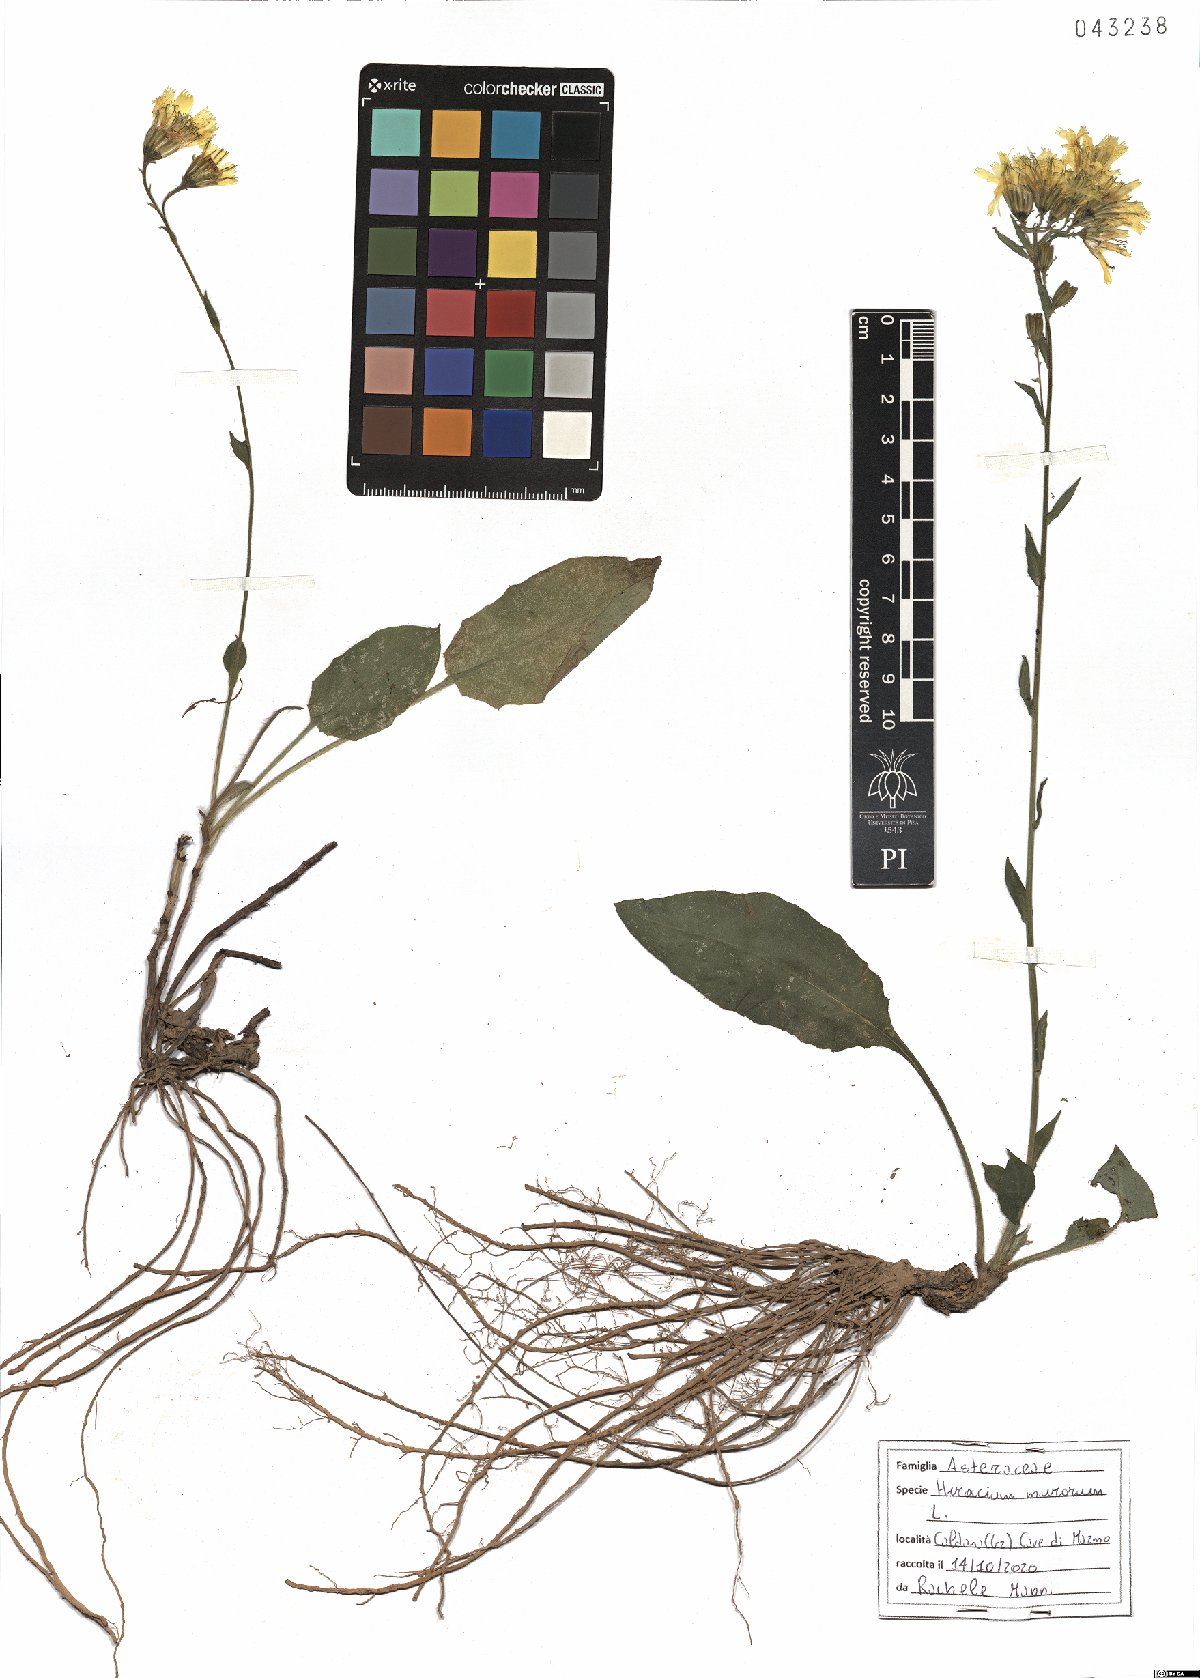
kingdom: Plantae
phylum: Tracheophyta
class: Magnoliopsida
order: Asterales
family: Asteraceae
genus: Hieracium
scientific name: Hieracium murorum
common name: Wall hawkweed
